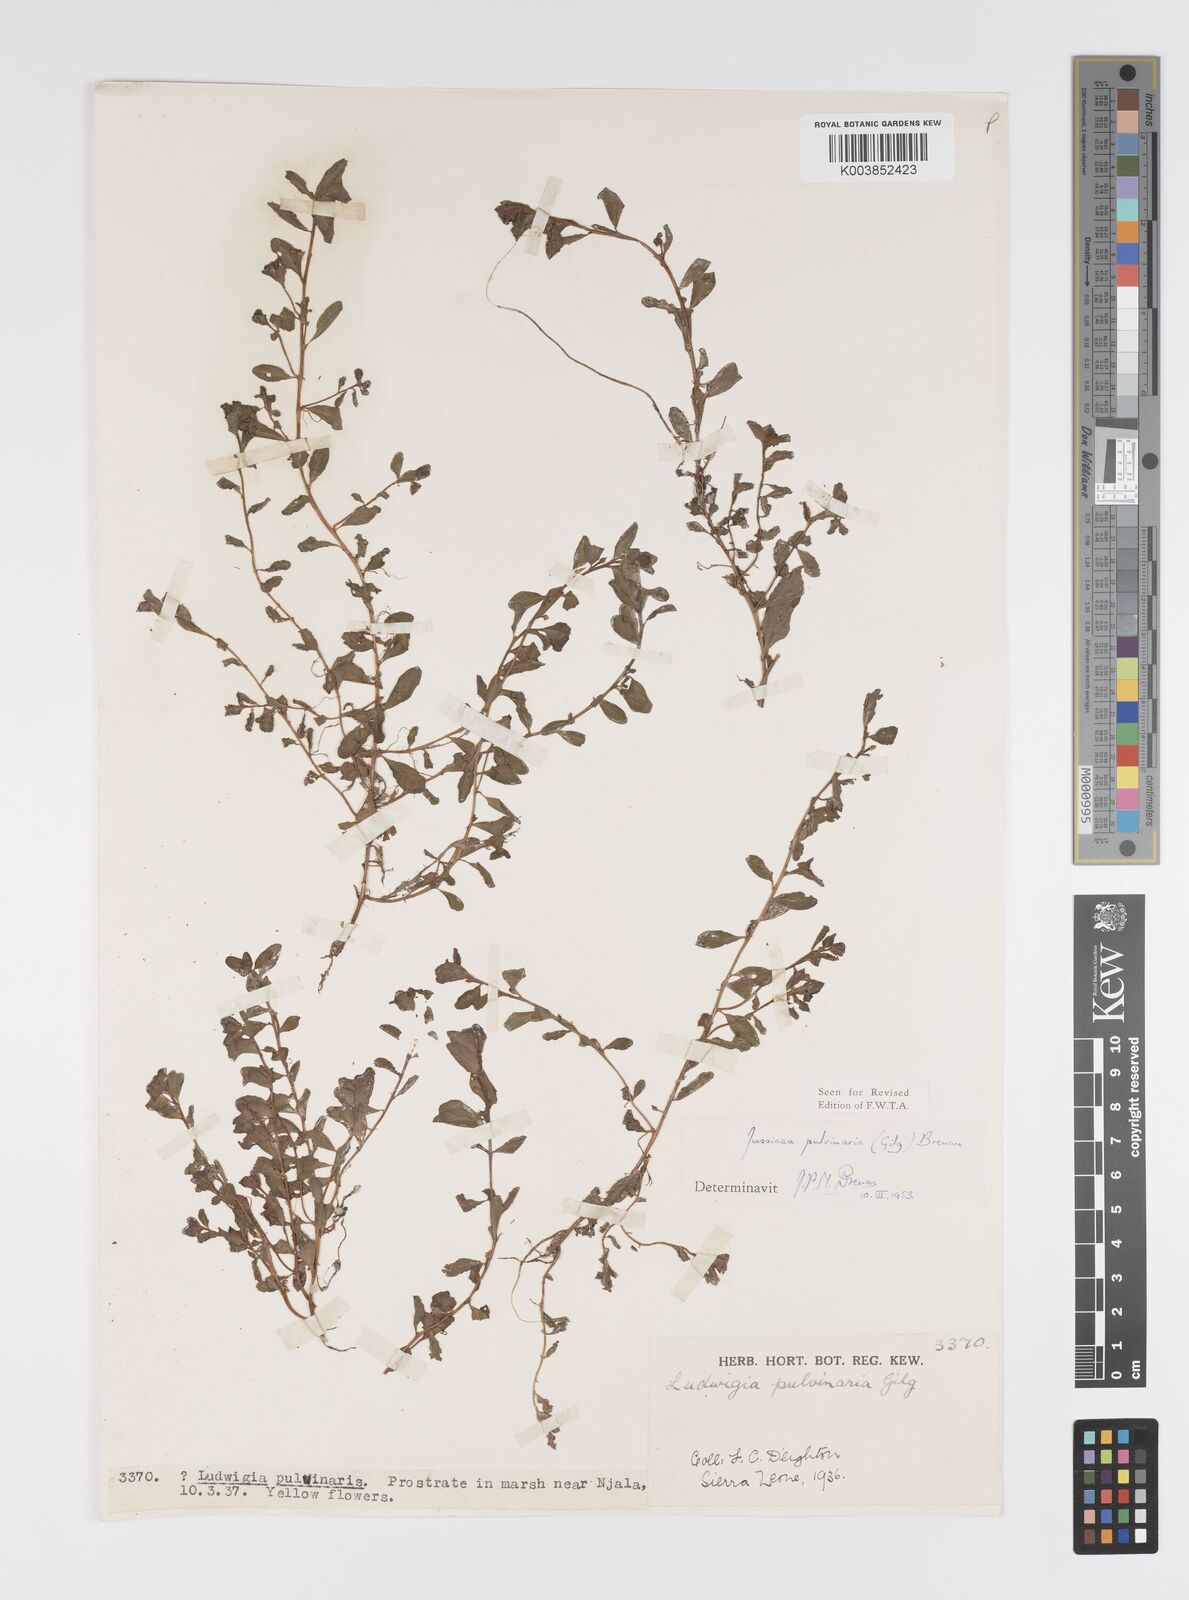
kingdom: Plantae
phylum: Tracheophyta
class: Magnoliopsida
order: Myrtales
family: Onagraceae
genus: Ludwigia
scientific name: Ludwigia senegalensis
